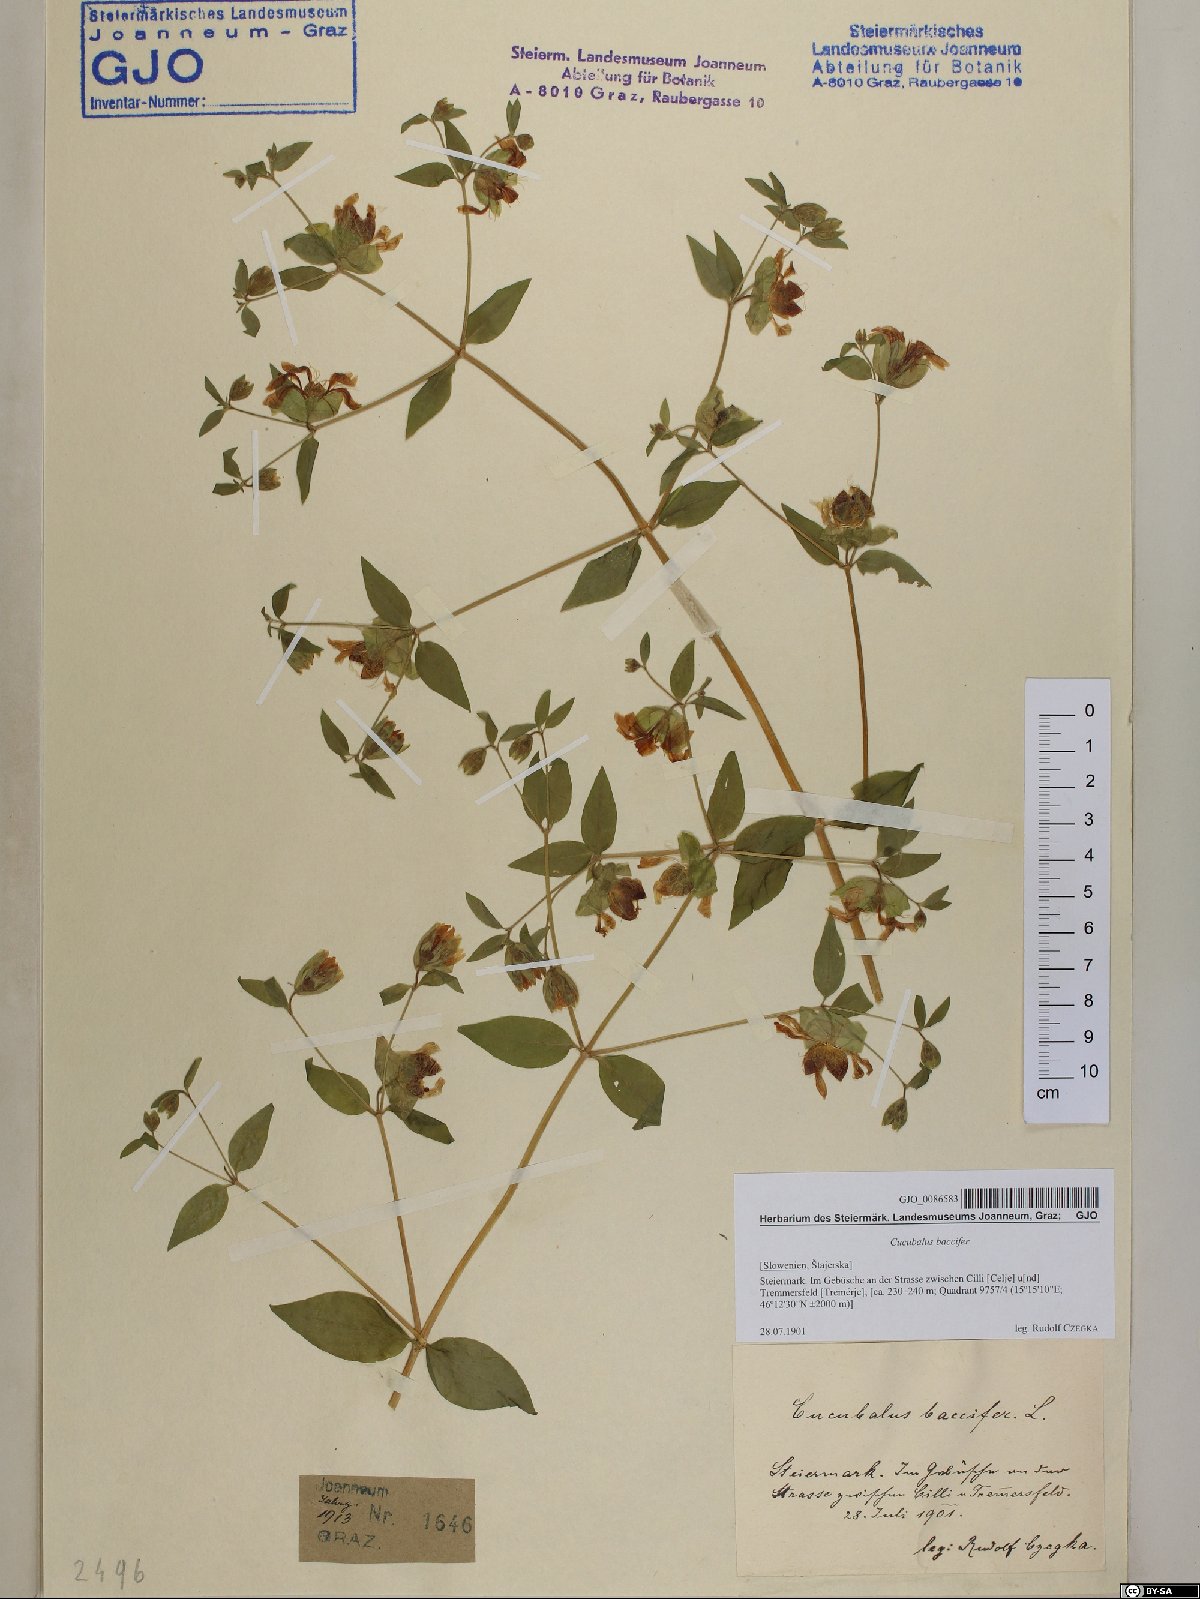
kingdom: Plantae
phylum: Tracheophyta
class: Magnoliopsida
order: Caryophyllales
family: Caryophyllaceae
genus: Silene
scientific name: Silene baccifera
